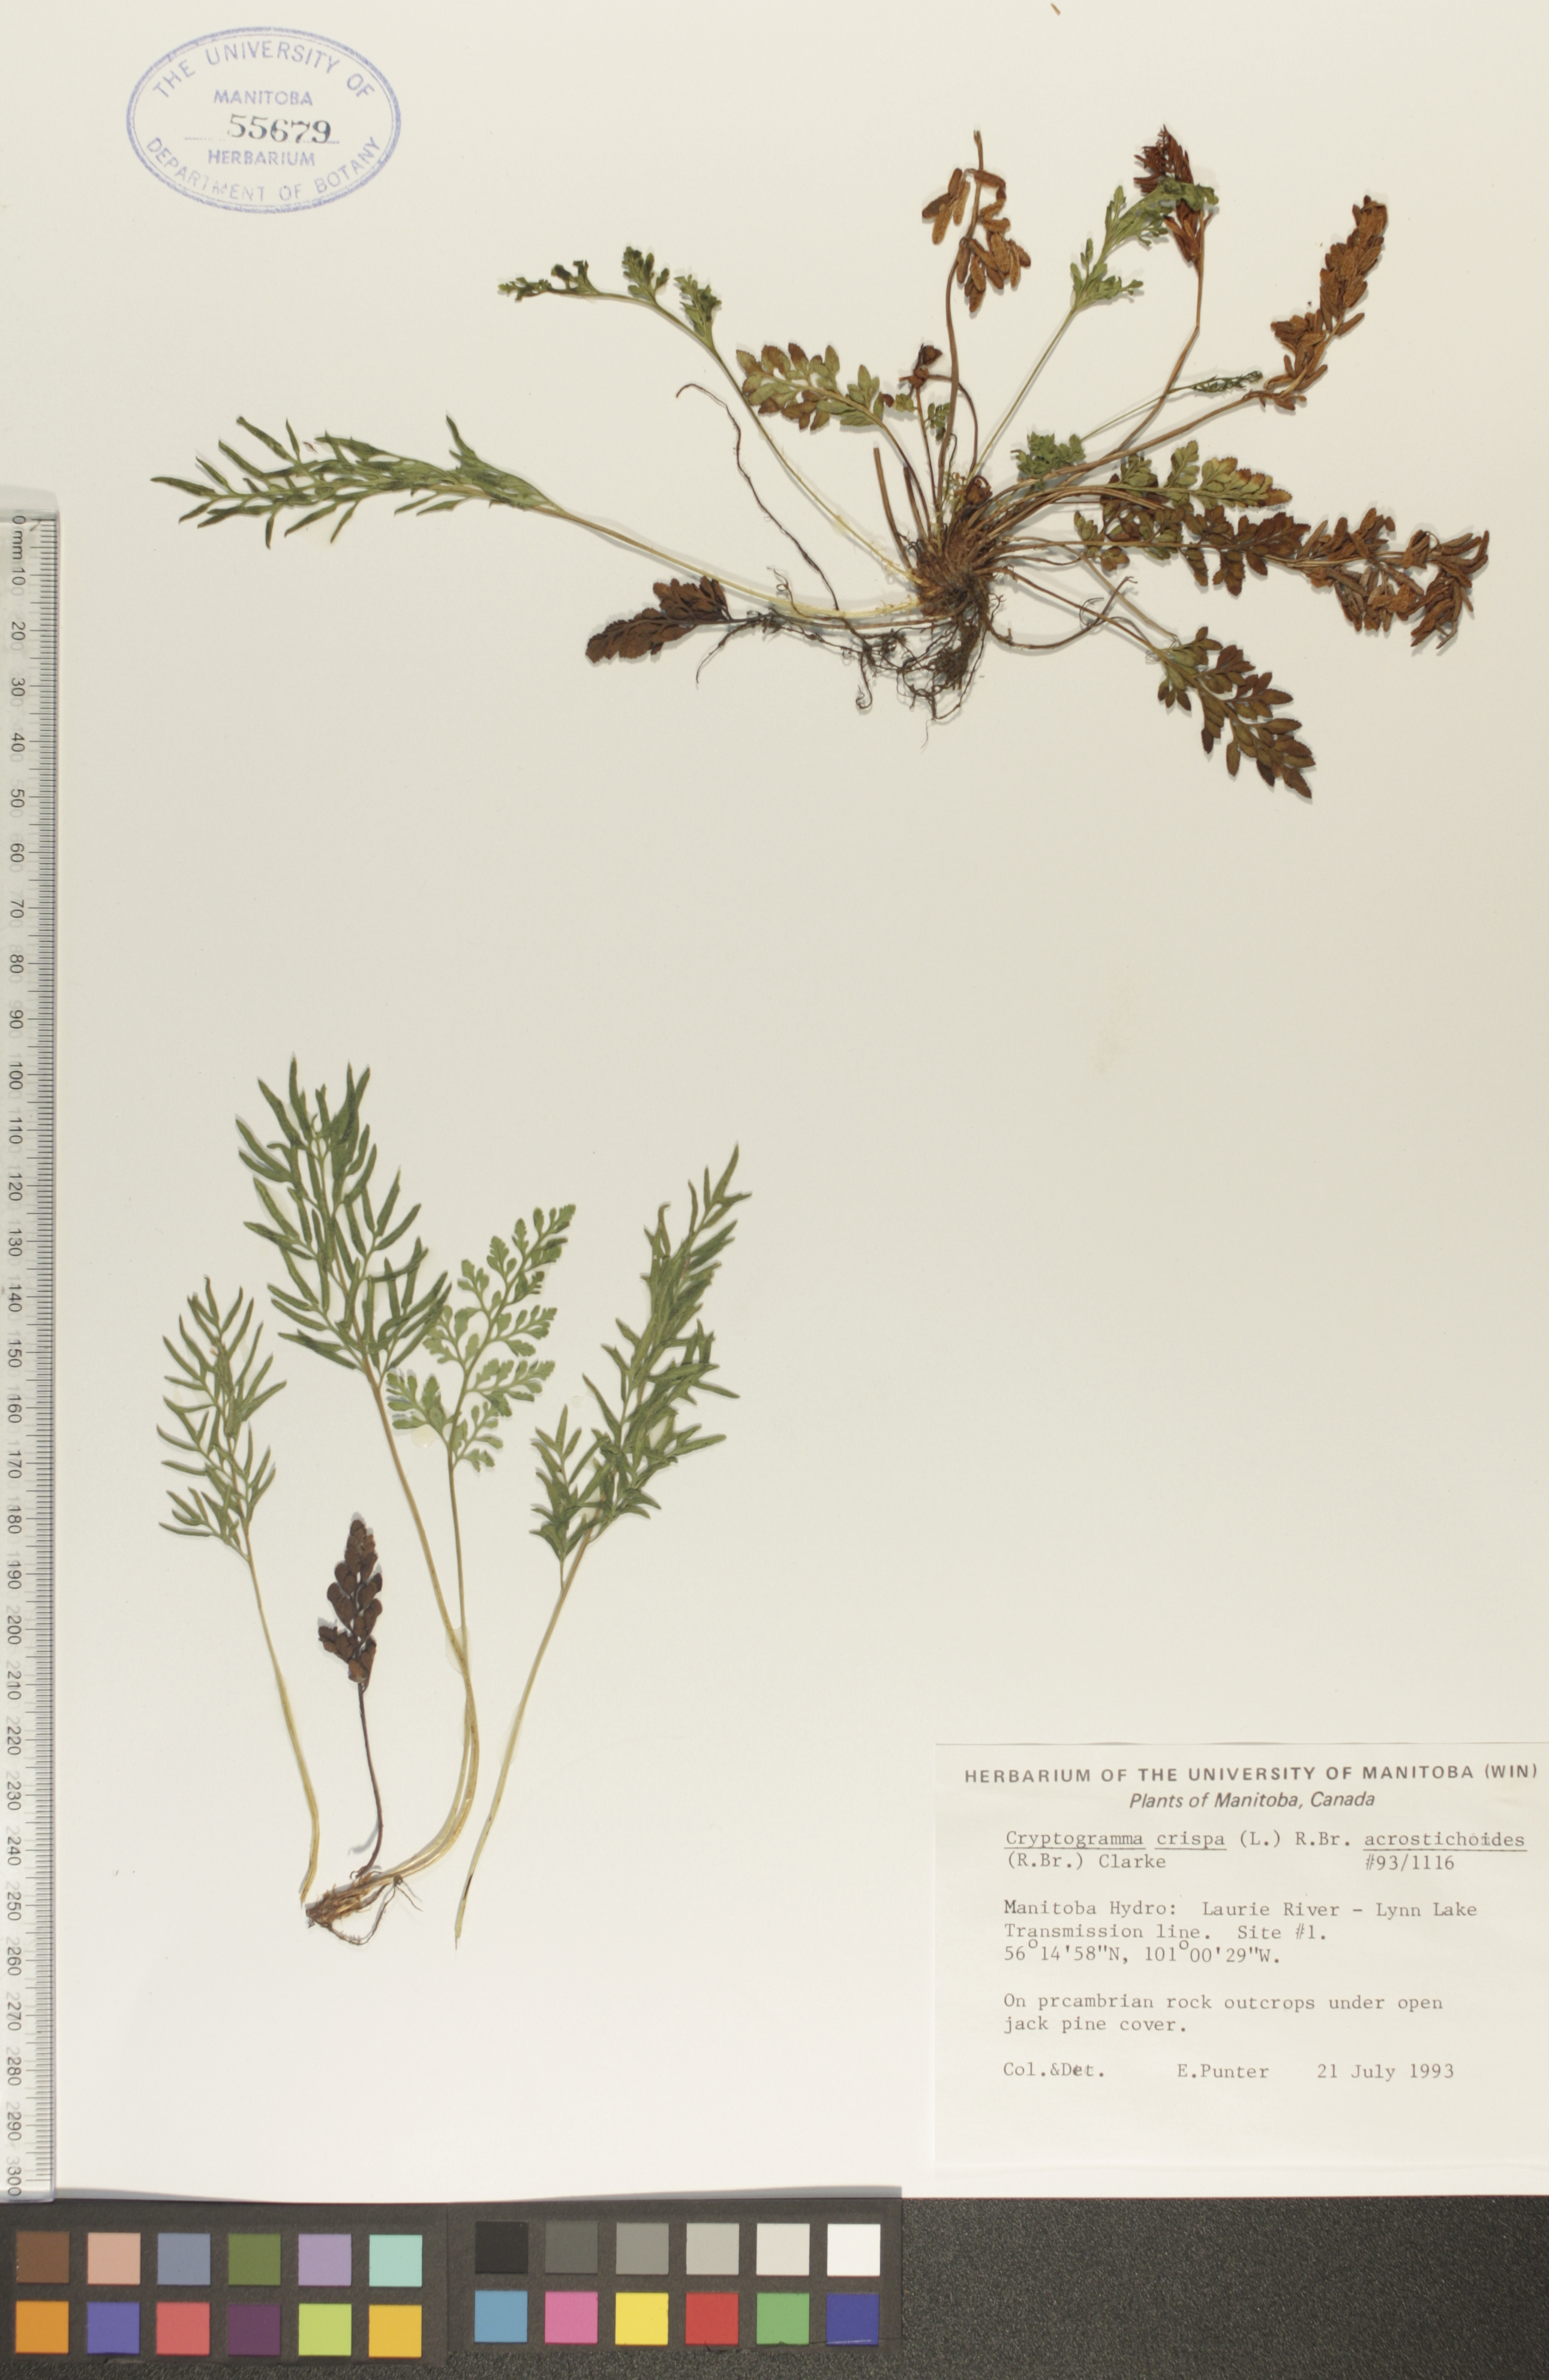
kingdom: Plantae
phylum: Tracheophyta
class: Polypodiopsida
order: Polypodiales
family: Pteridaceae
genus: Cryptogramma
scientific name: Cryptogramma acrostichoides
